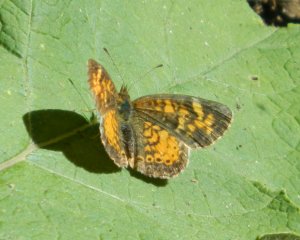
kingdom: Animalia
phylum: Arthropoda
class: Insecta
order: Lepidoptera
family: Nymphalidae
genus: Phyciodes
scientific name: Phyciodes tharos
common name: Pearl Crescent
